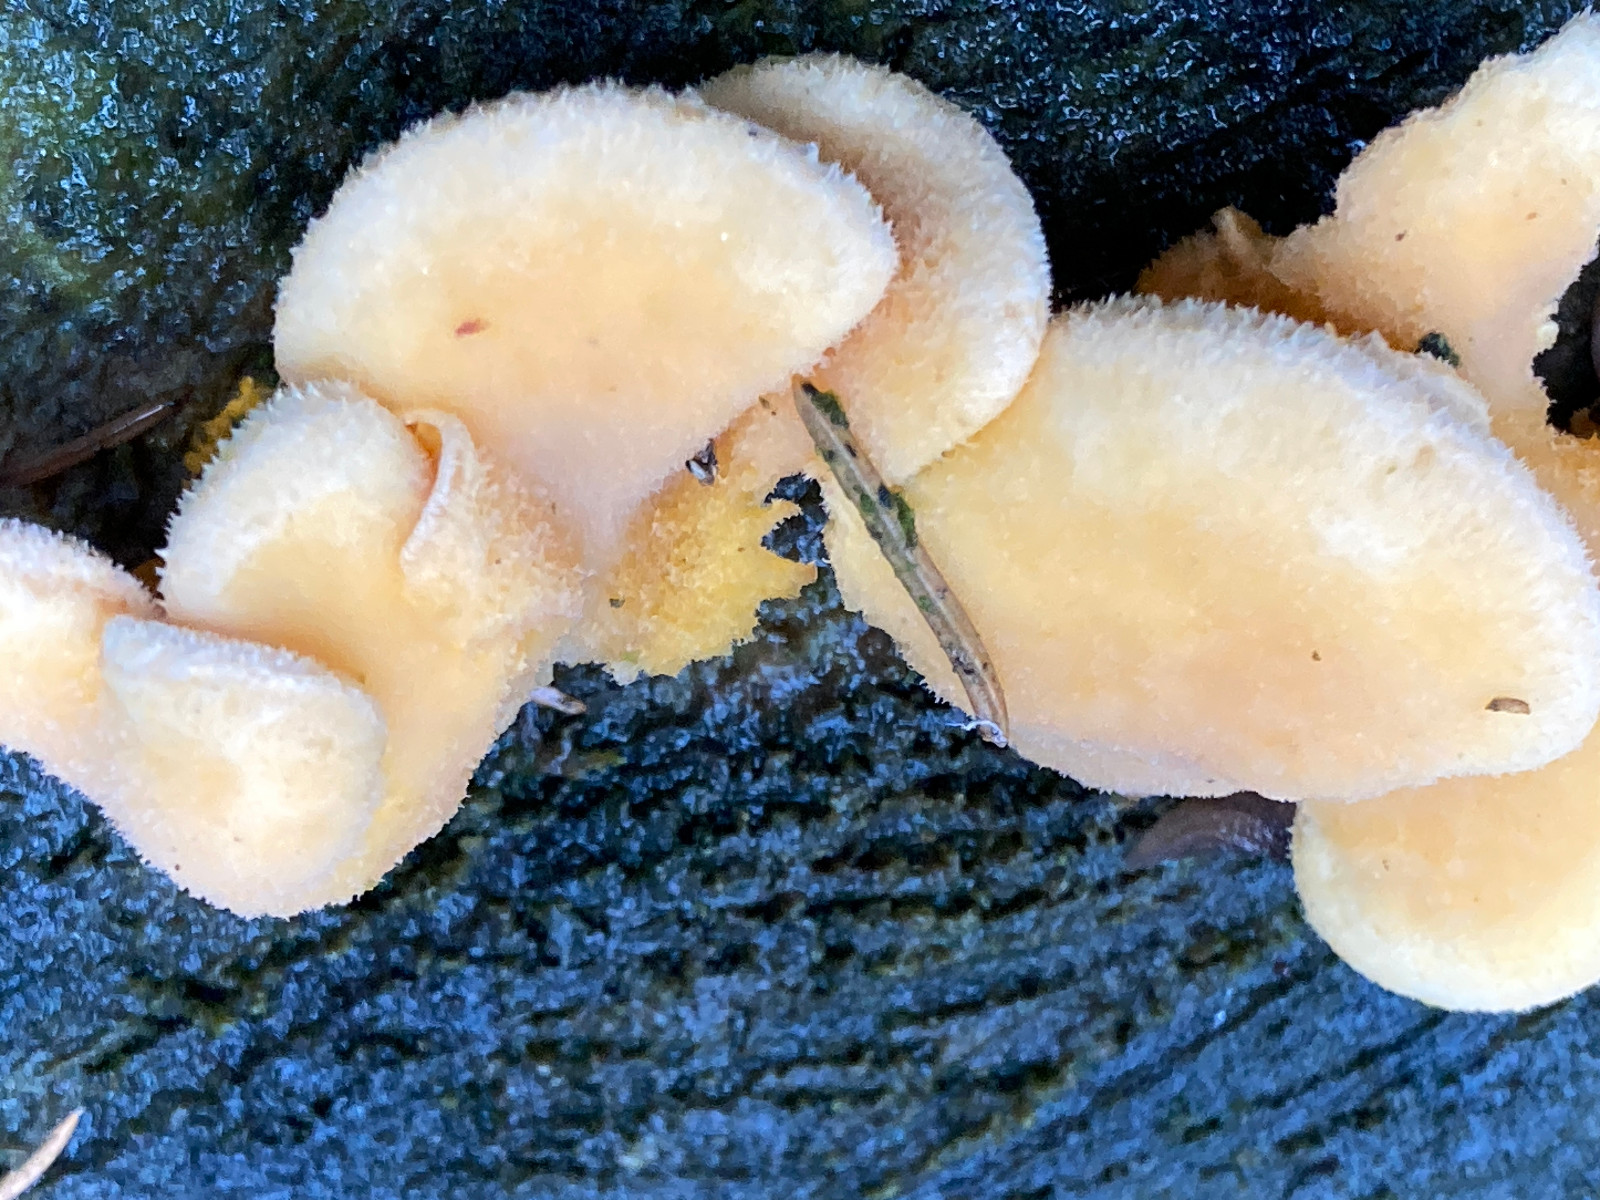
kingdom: Fungi
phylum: Basidiomycota
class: Agaricomycetes
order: Agaricales
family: Phyllotopsidaceae
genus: Phyllotopsis
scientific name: Phyllotopsis nidulans
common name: okkerblad
